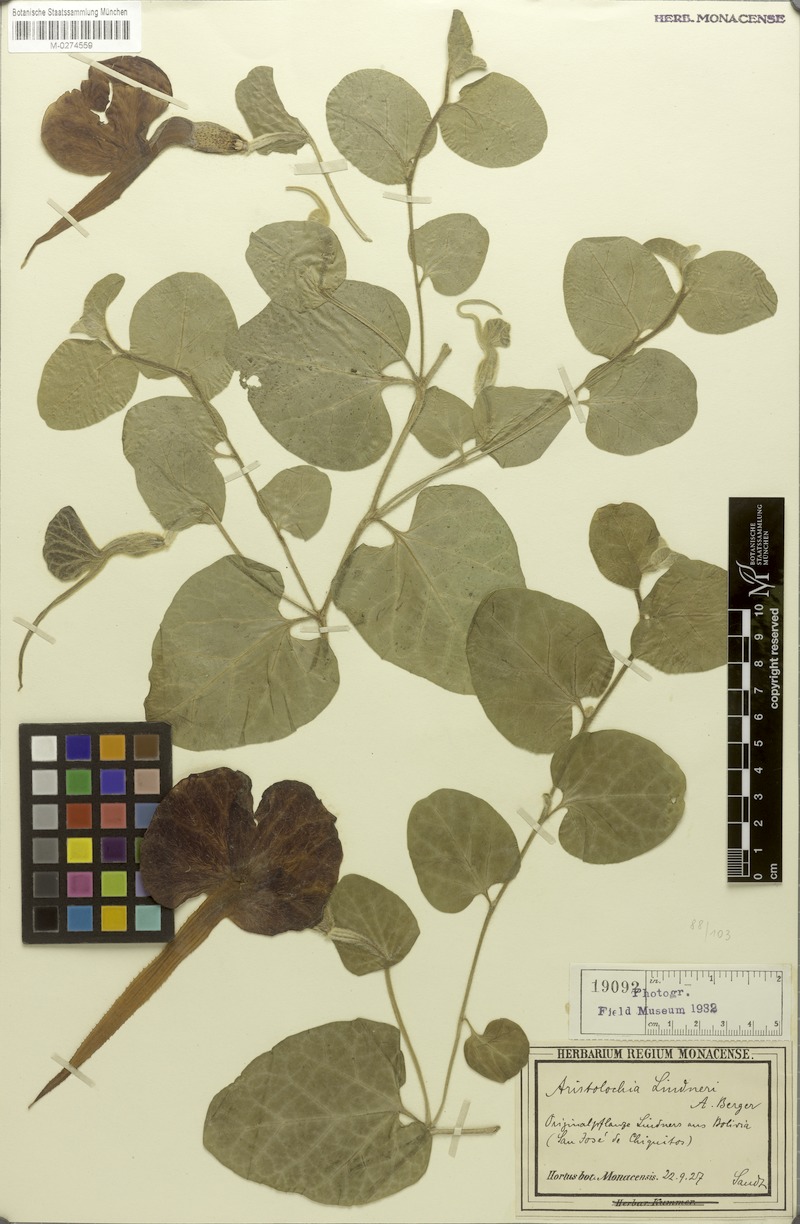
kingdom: Plantae
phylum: Tracheophyta
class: Magnoliopsida
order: Piperales
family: Aristolochiaceae
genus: Aristolochia
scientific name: Aristolochia lindneri
